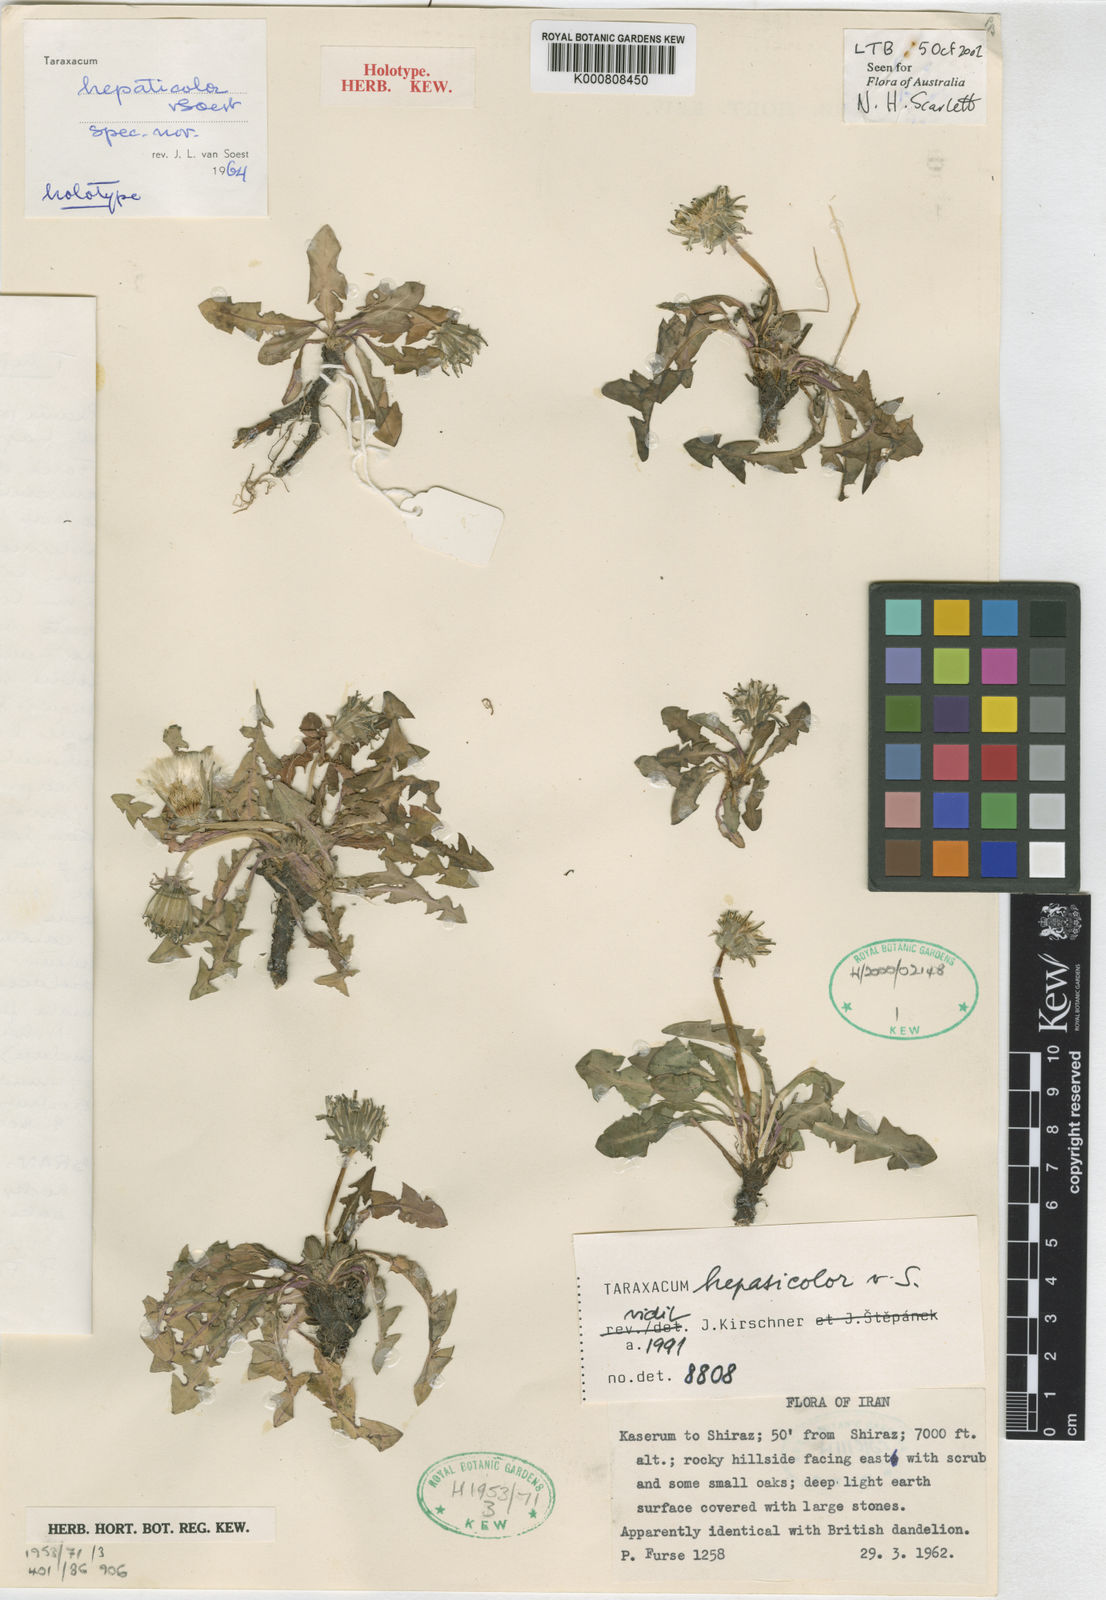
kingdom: Plantae
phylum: Tracheophyta
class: Magnoliopsida
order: Asterales
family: Asteraceae
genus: Taraxacum
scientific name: Taraxacum hepaticolor
